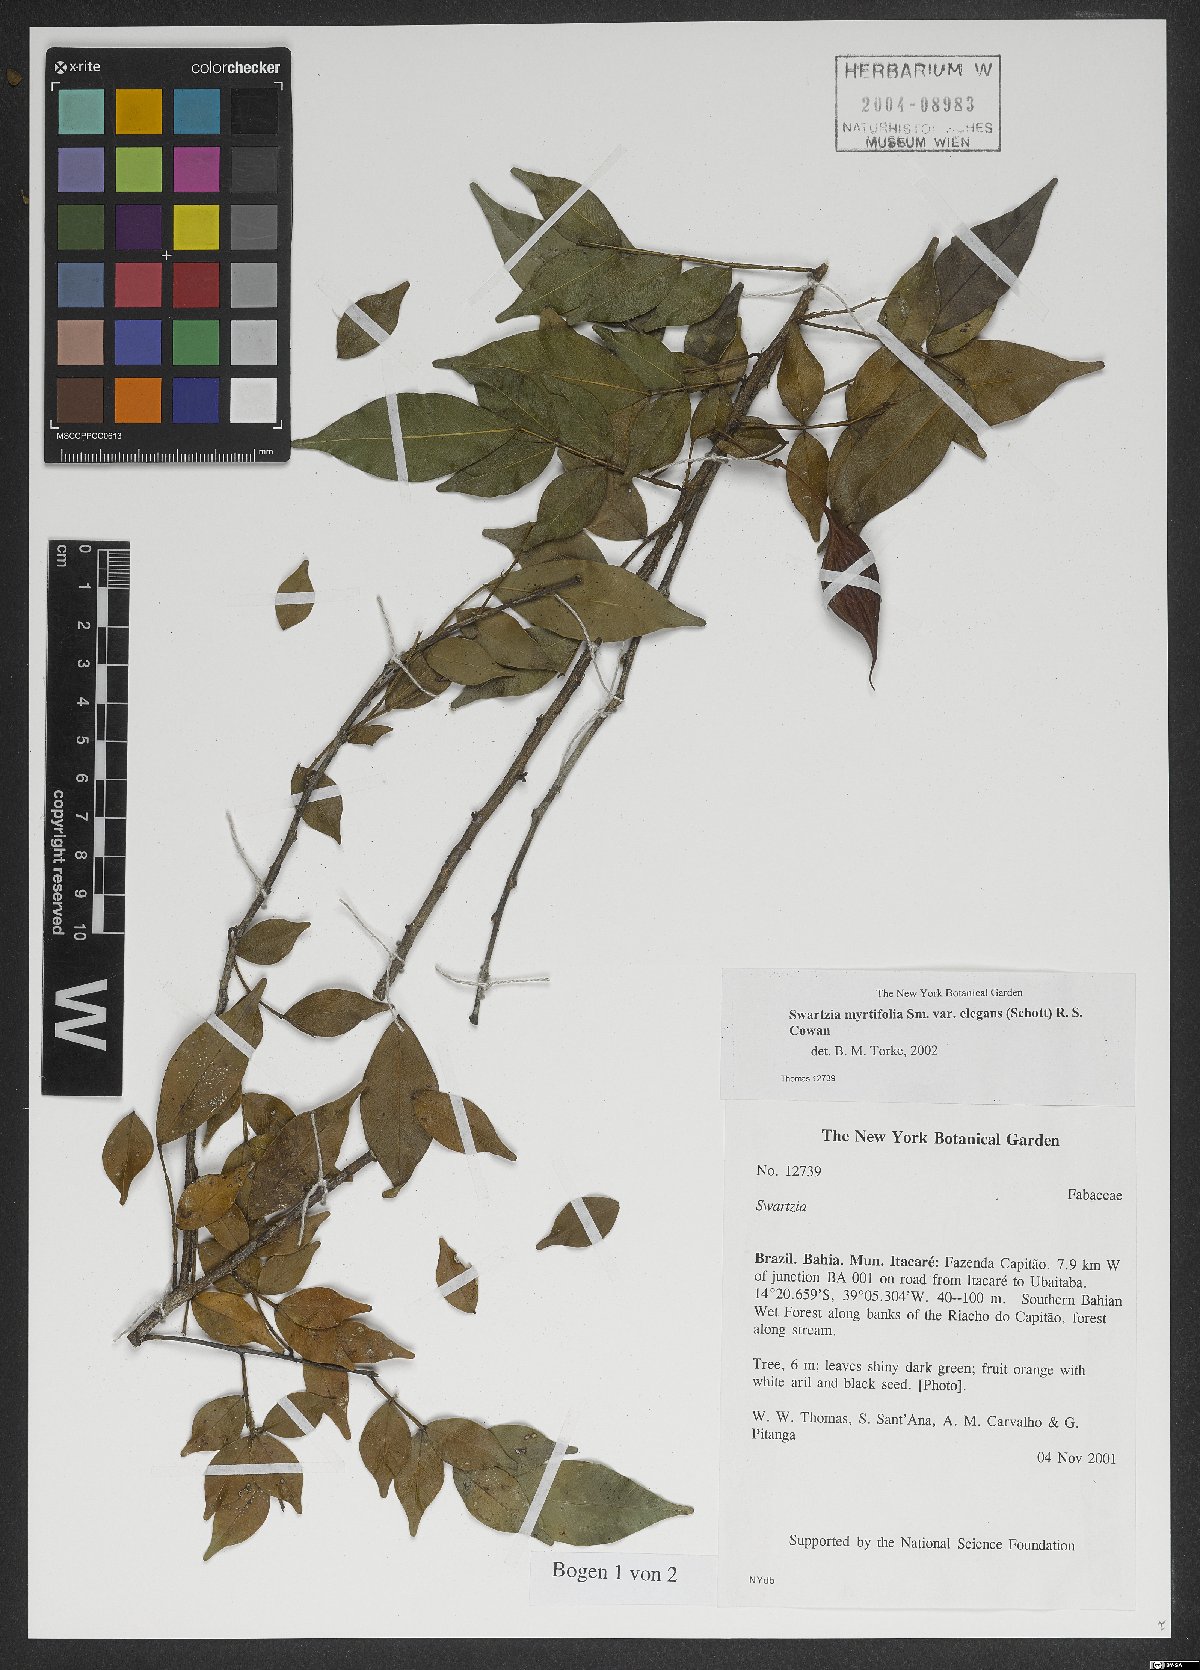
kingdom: Plantae
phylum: Tracheophyta
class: Magnoliopsida
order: Fabales
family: Fabaceae
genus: Swartzia
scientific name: Swartzia myrtifolia
